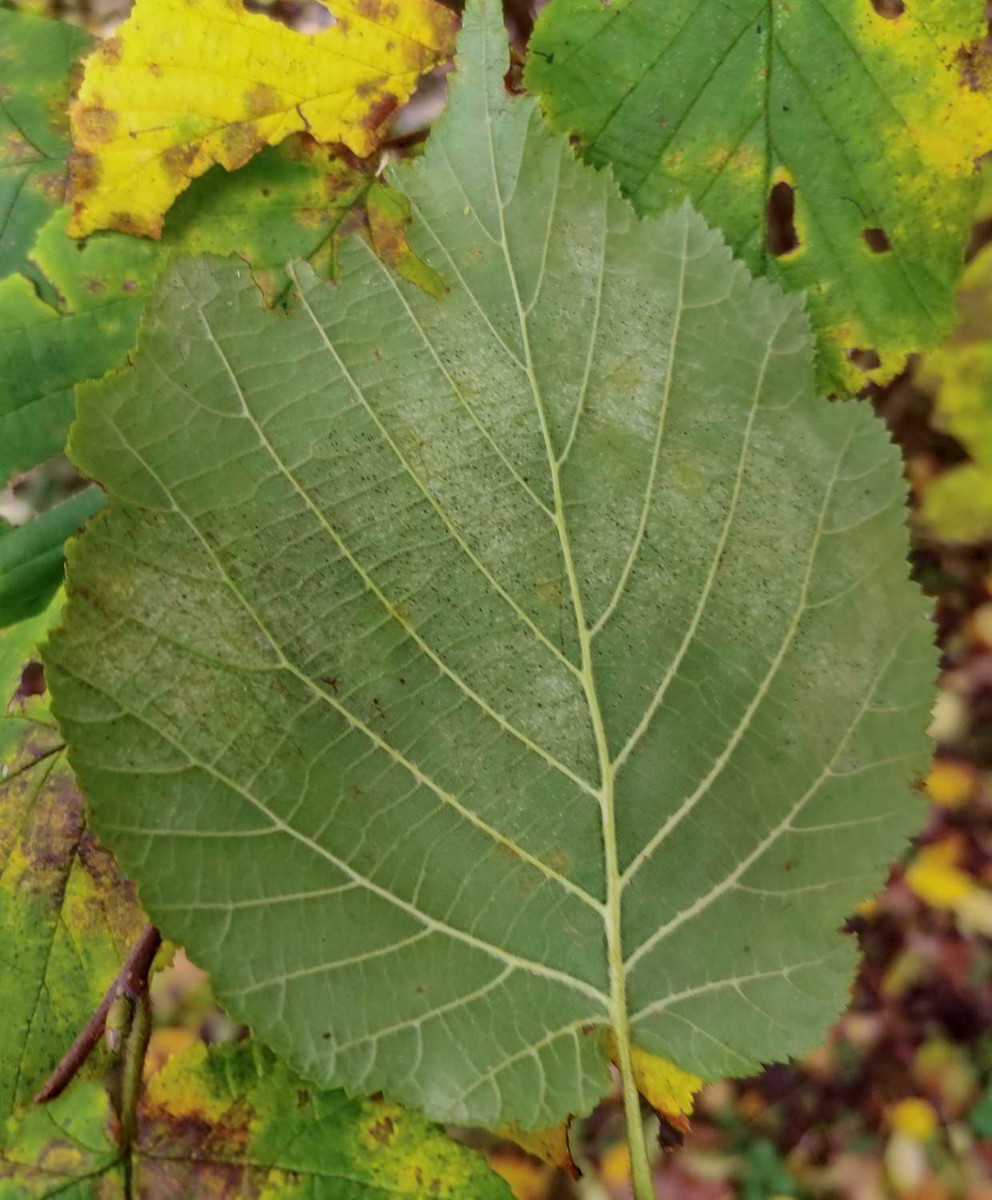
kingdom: Fungi
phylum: Ascomycota
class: Leotiomycetes
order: Helotiales
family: Erysiphaceae
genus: Phyllactinia
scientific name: Phyllactinia guttata
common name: hassel-meldug
